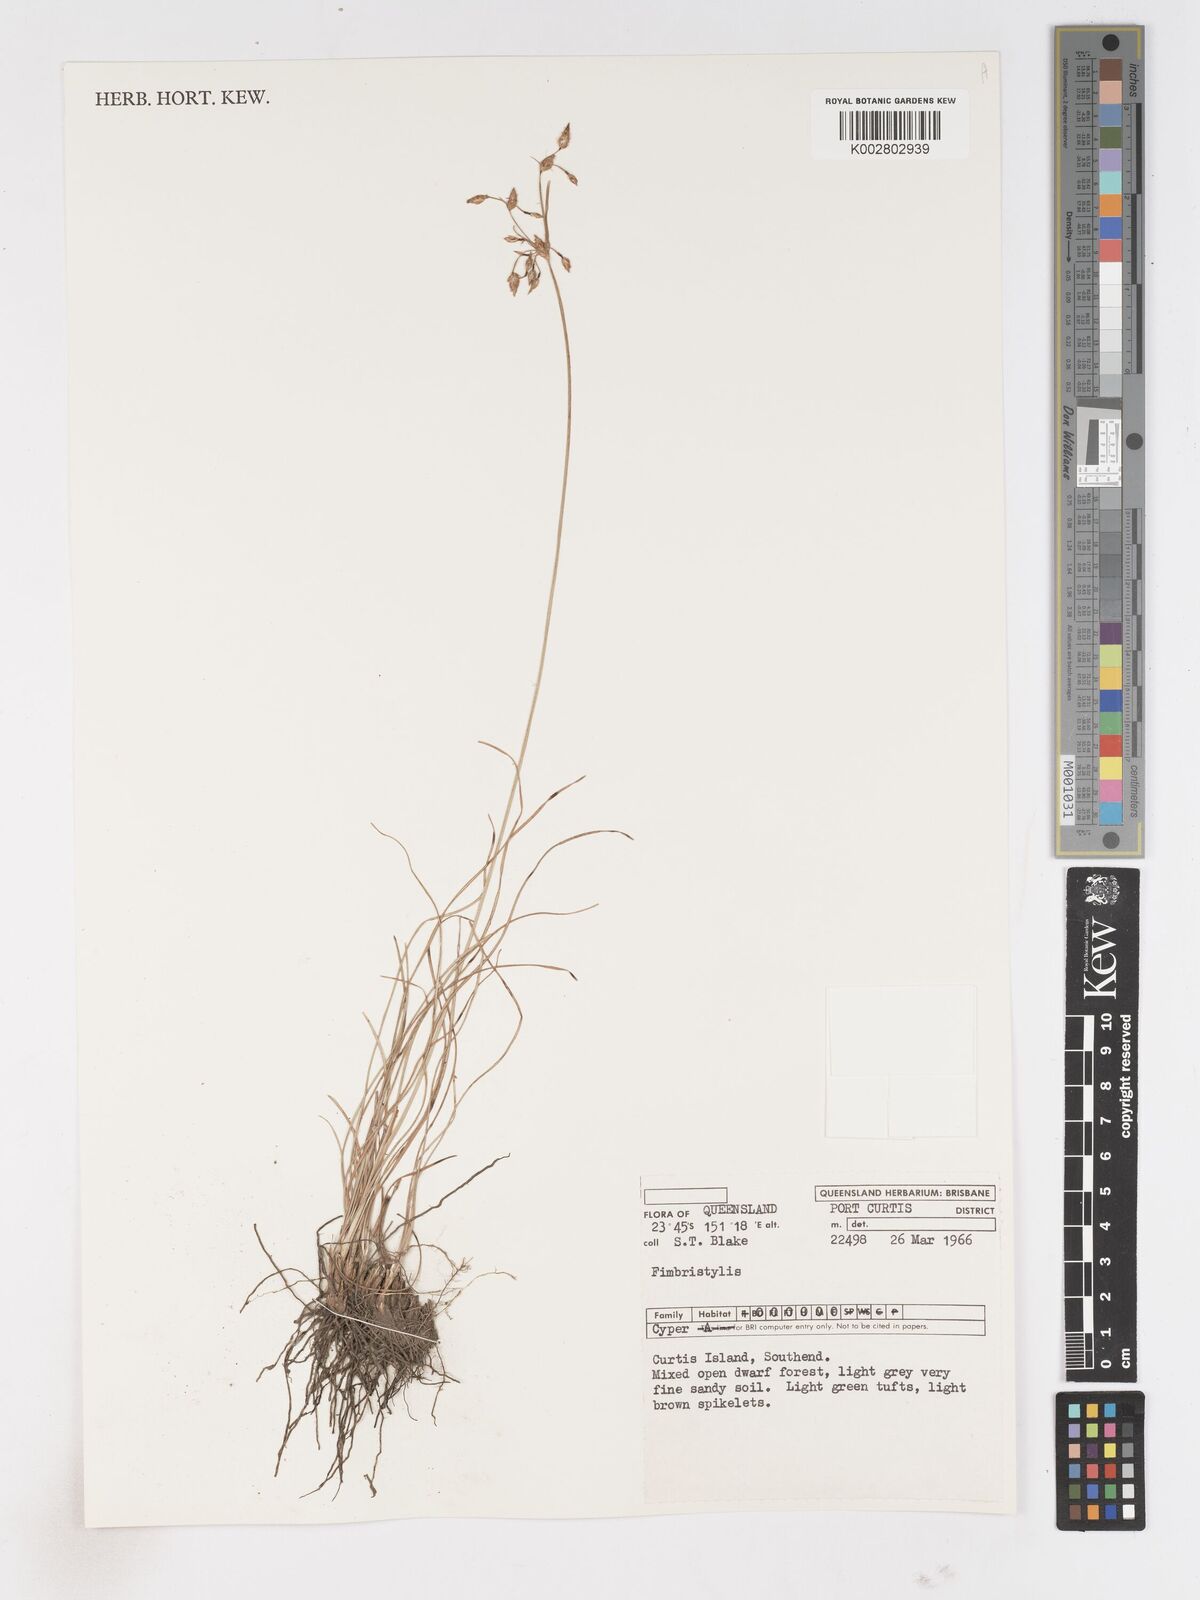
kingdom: Plantae
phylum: Tracheophyta
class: Liliopsida
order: Poales
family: Cyperaceae
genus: Fimbristylis
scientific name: Fimbristylis
